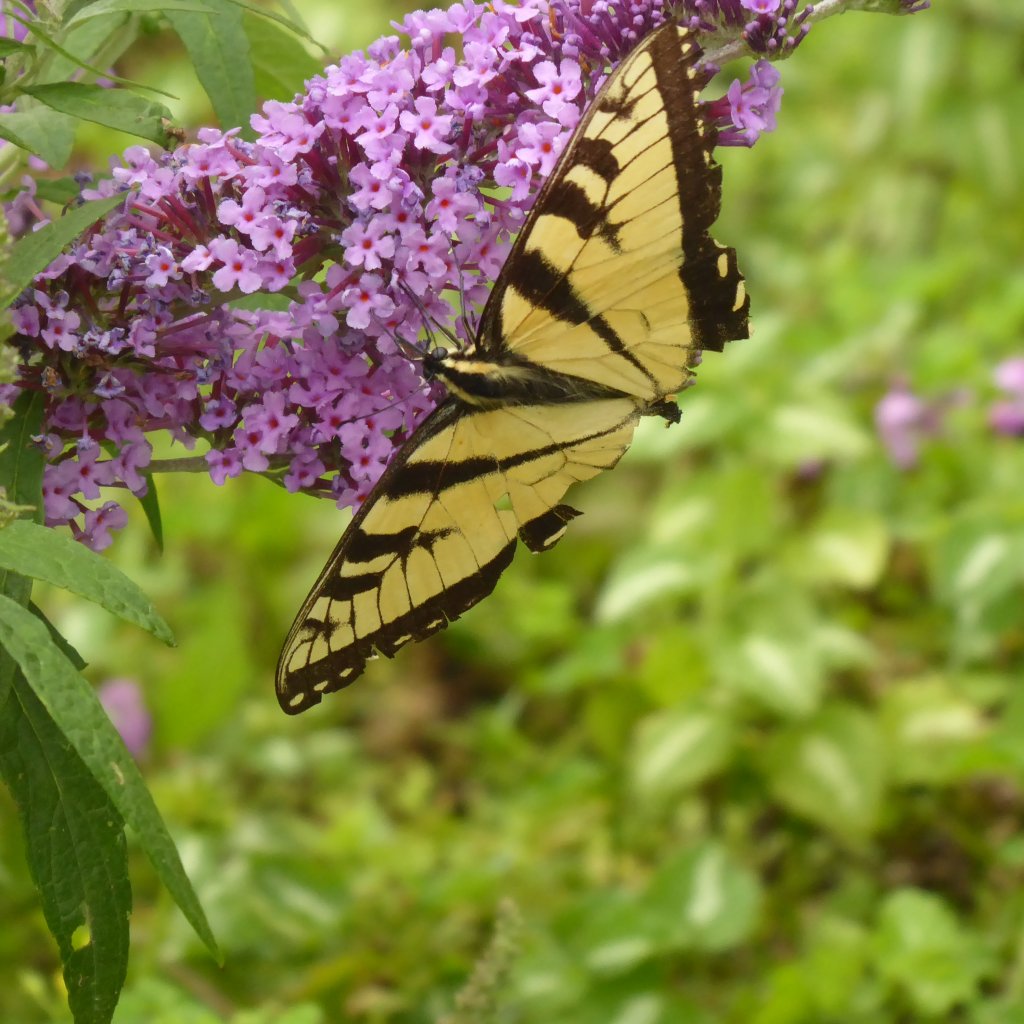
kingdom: Animalia
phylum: Arthropoda
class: Insecta
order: Lepidoptera
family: Papilionidae
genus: Pterourus
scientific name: Pterourus
